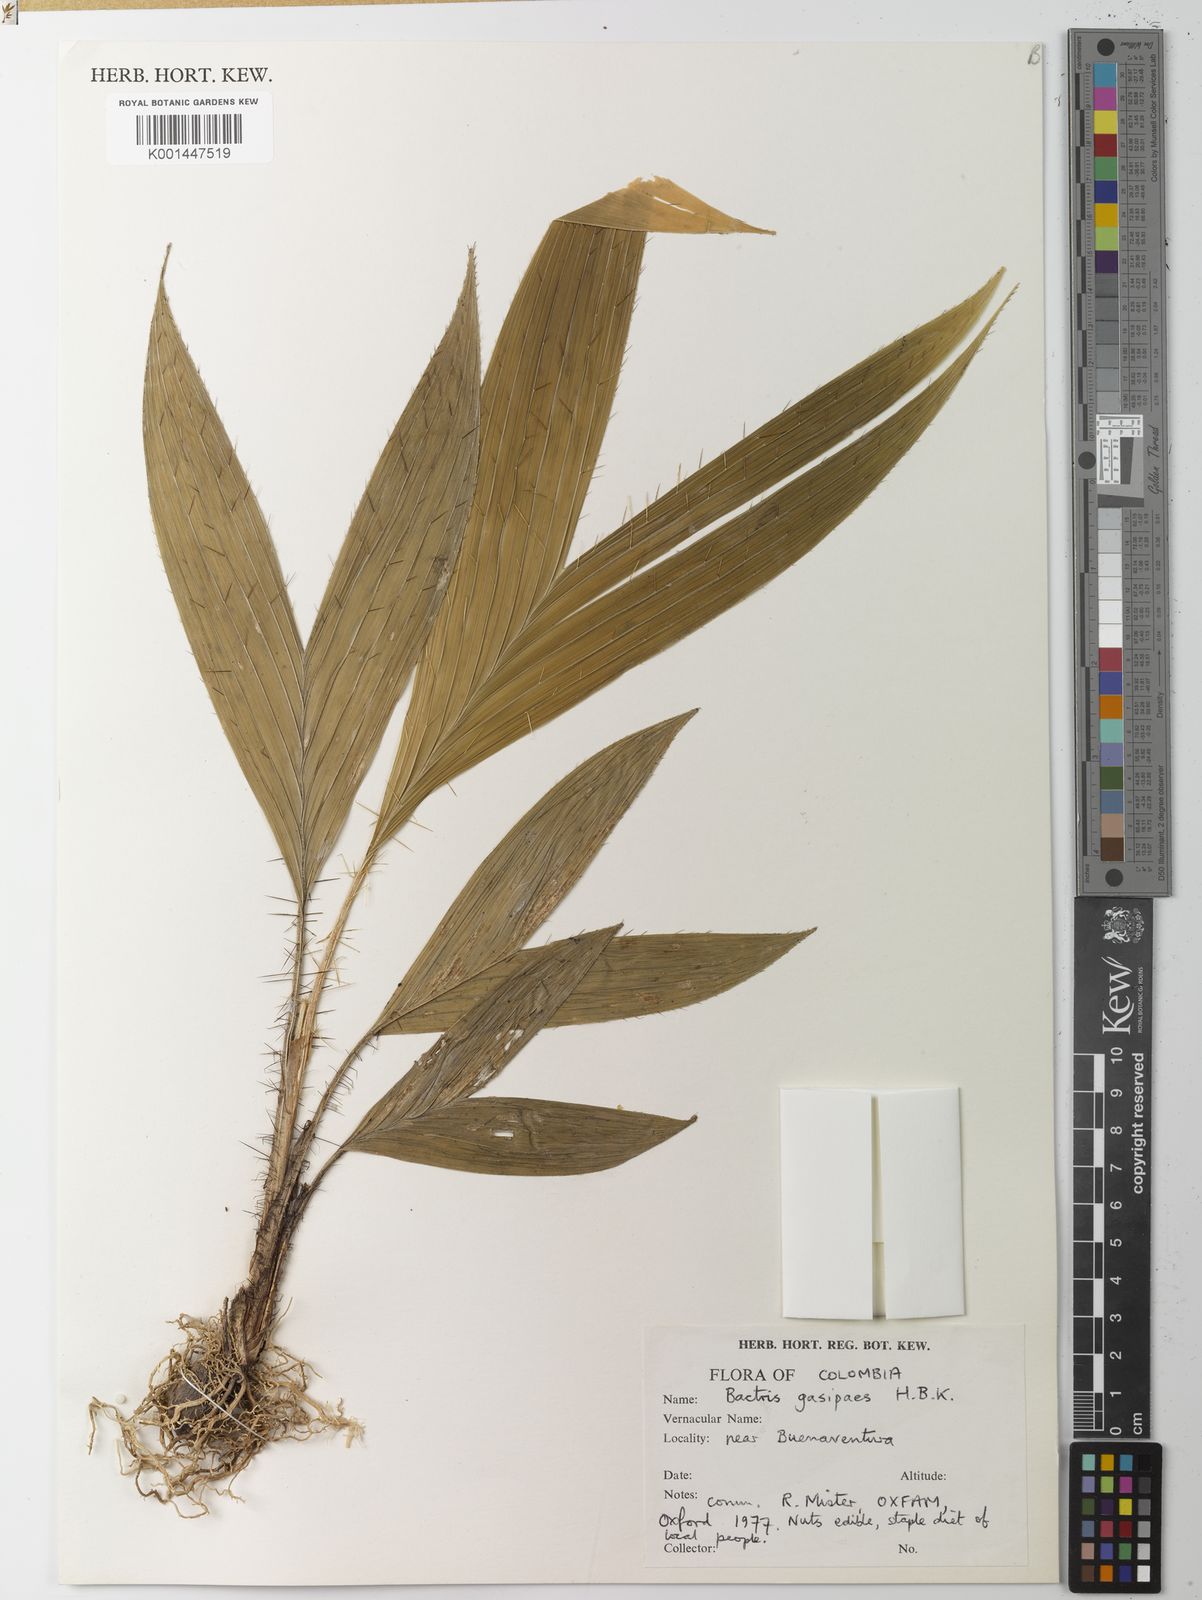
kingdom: Plantae
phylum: Tracheophyta
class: Liliopsida
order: Arecales
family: Arecaceae
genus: Bactris
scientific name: Bactris gasipaes
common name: Peach palm
